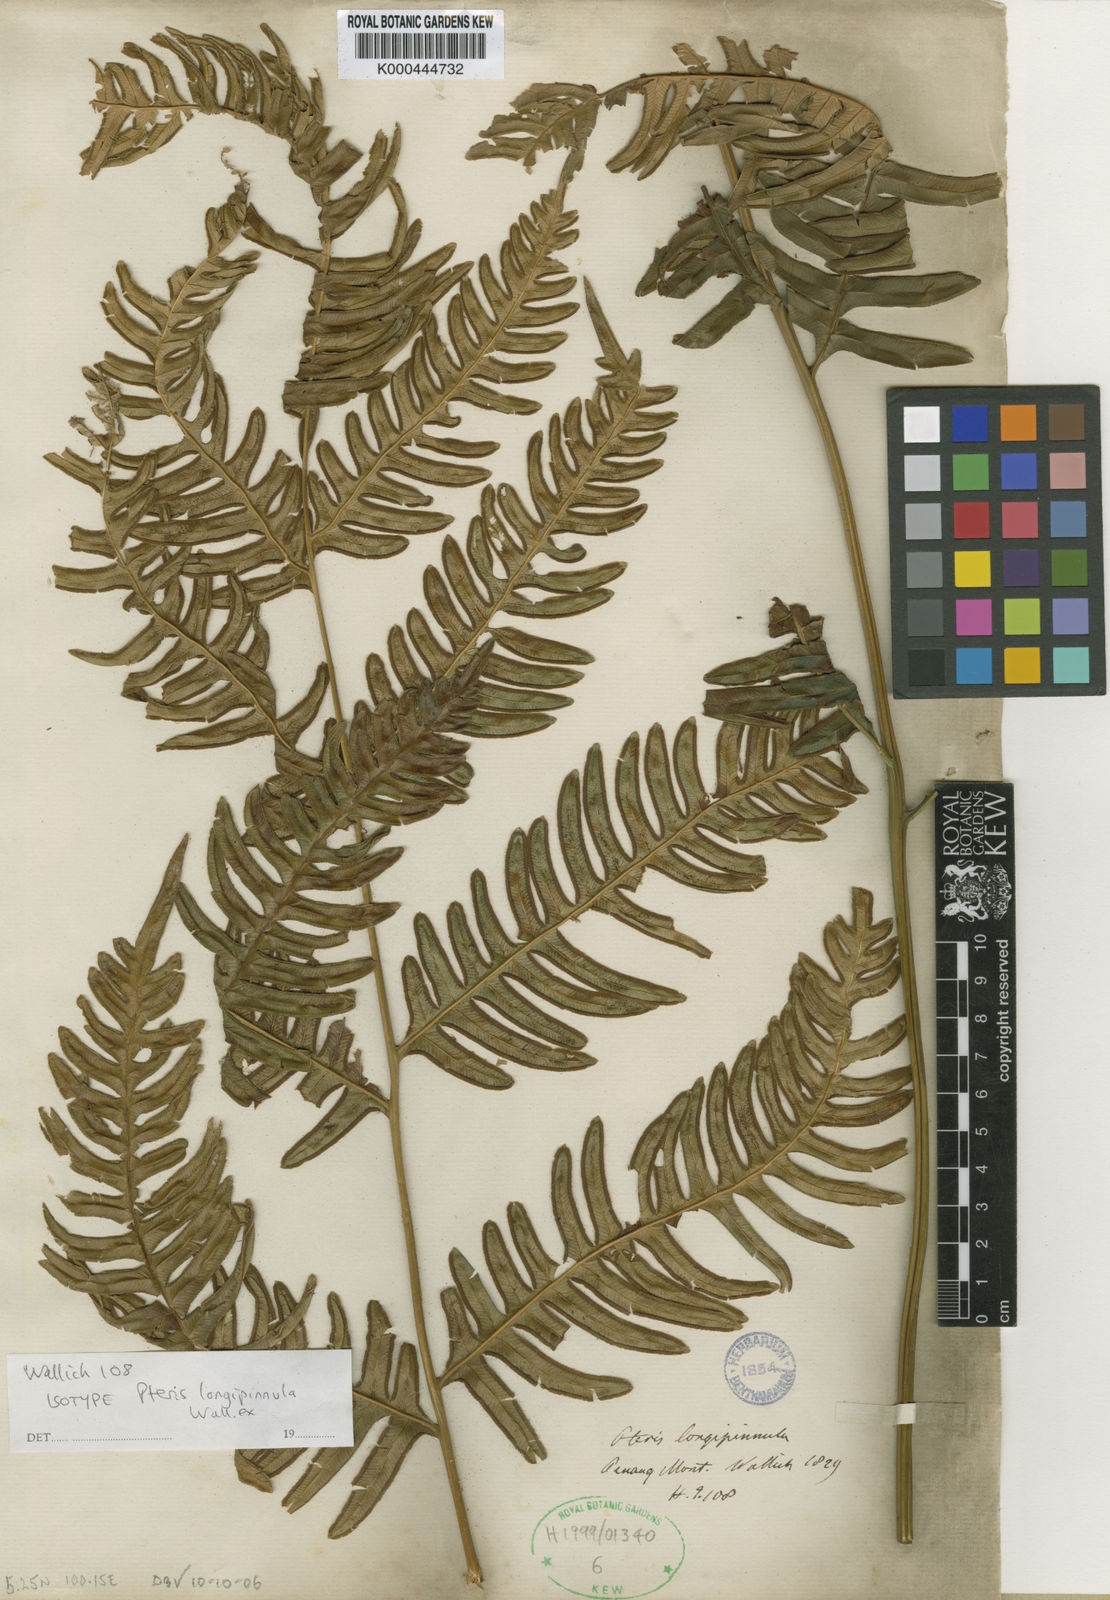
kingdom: Plantae
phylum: Tracheophyta
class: Polypodiopsida
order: Polypodiales
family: Pteridaceae
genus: Pteris
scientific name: Pteris longipinnula
